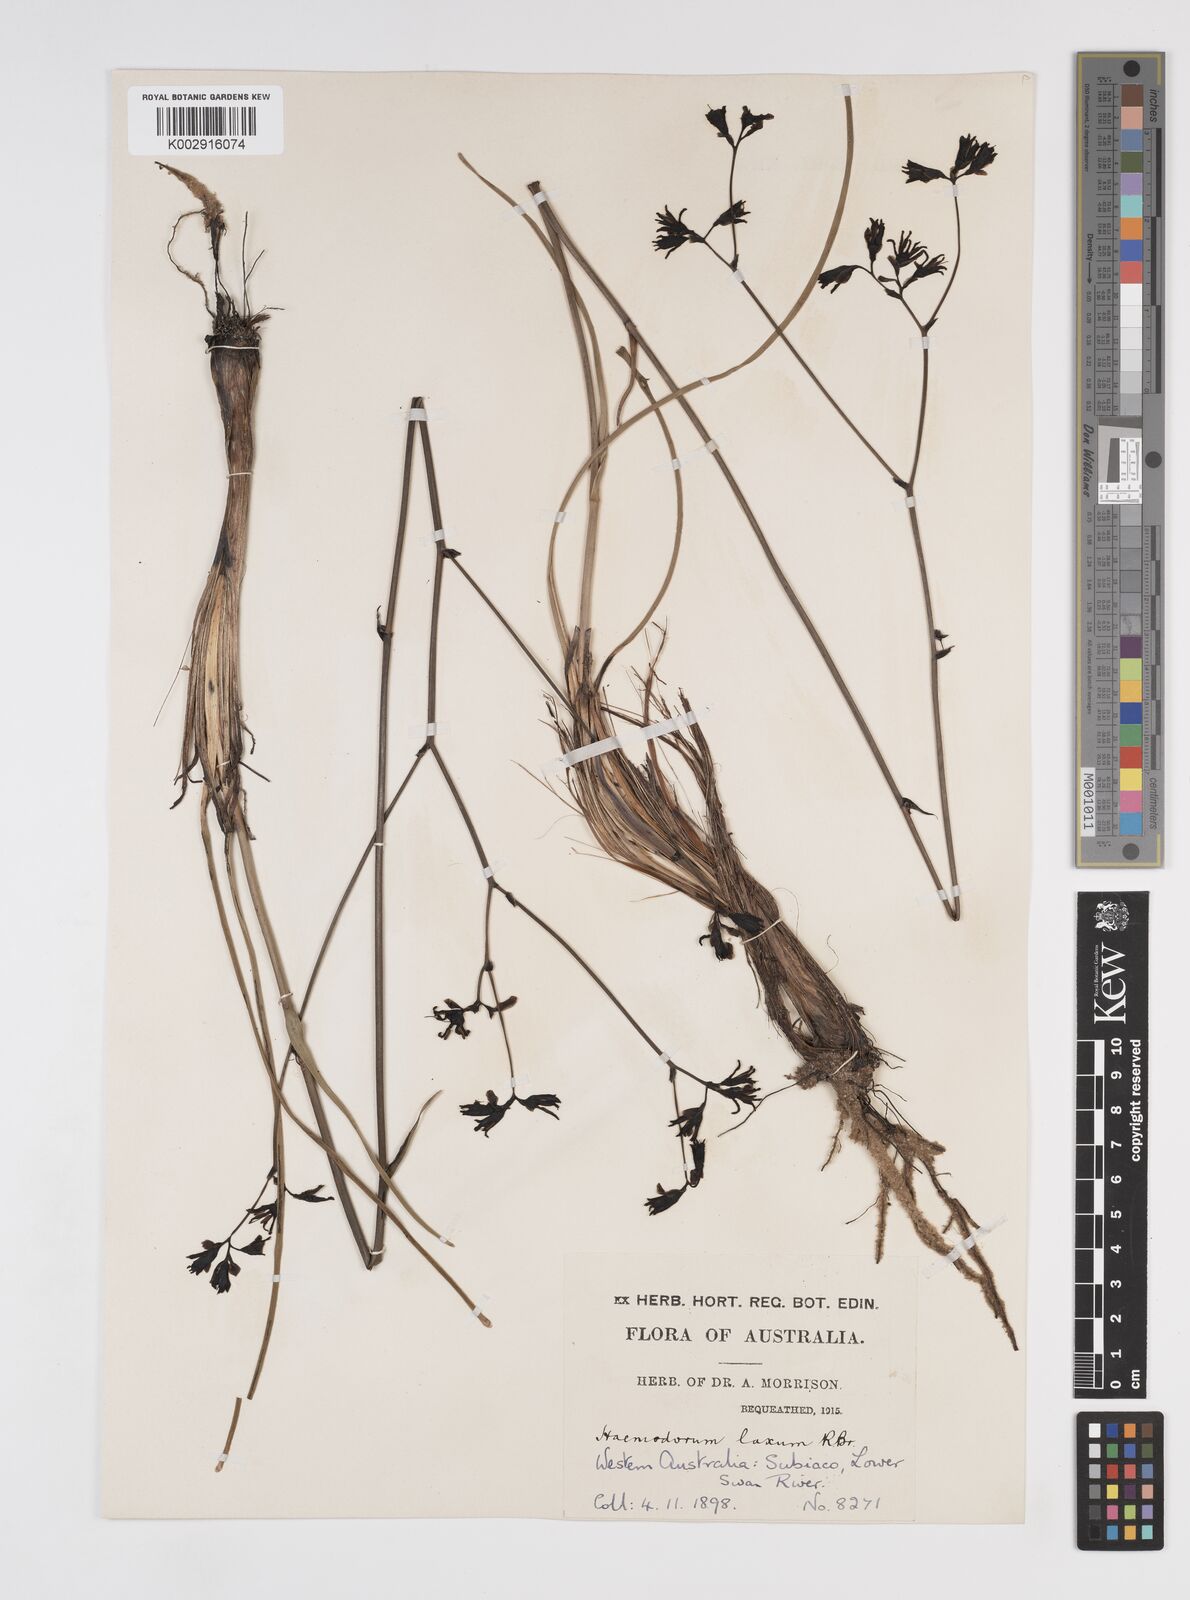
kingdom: Plantae
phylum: Tracheophyta
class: Liliopsida
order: Commelinales
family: Haemodoraceae
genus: Haemodorum
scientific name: Haemodorum laxum
